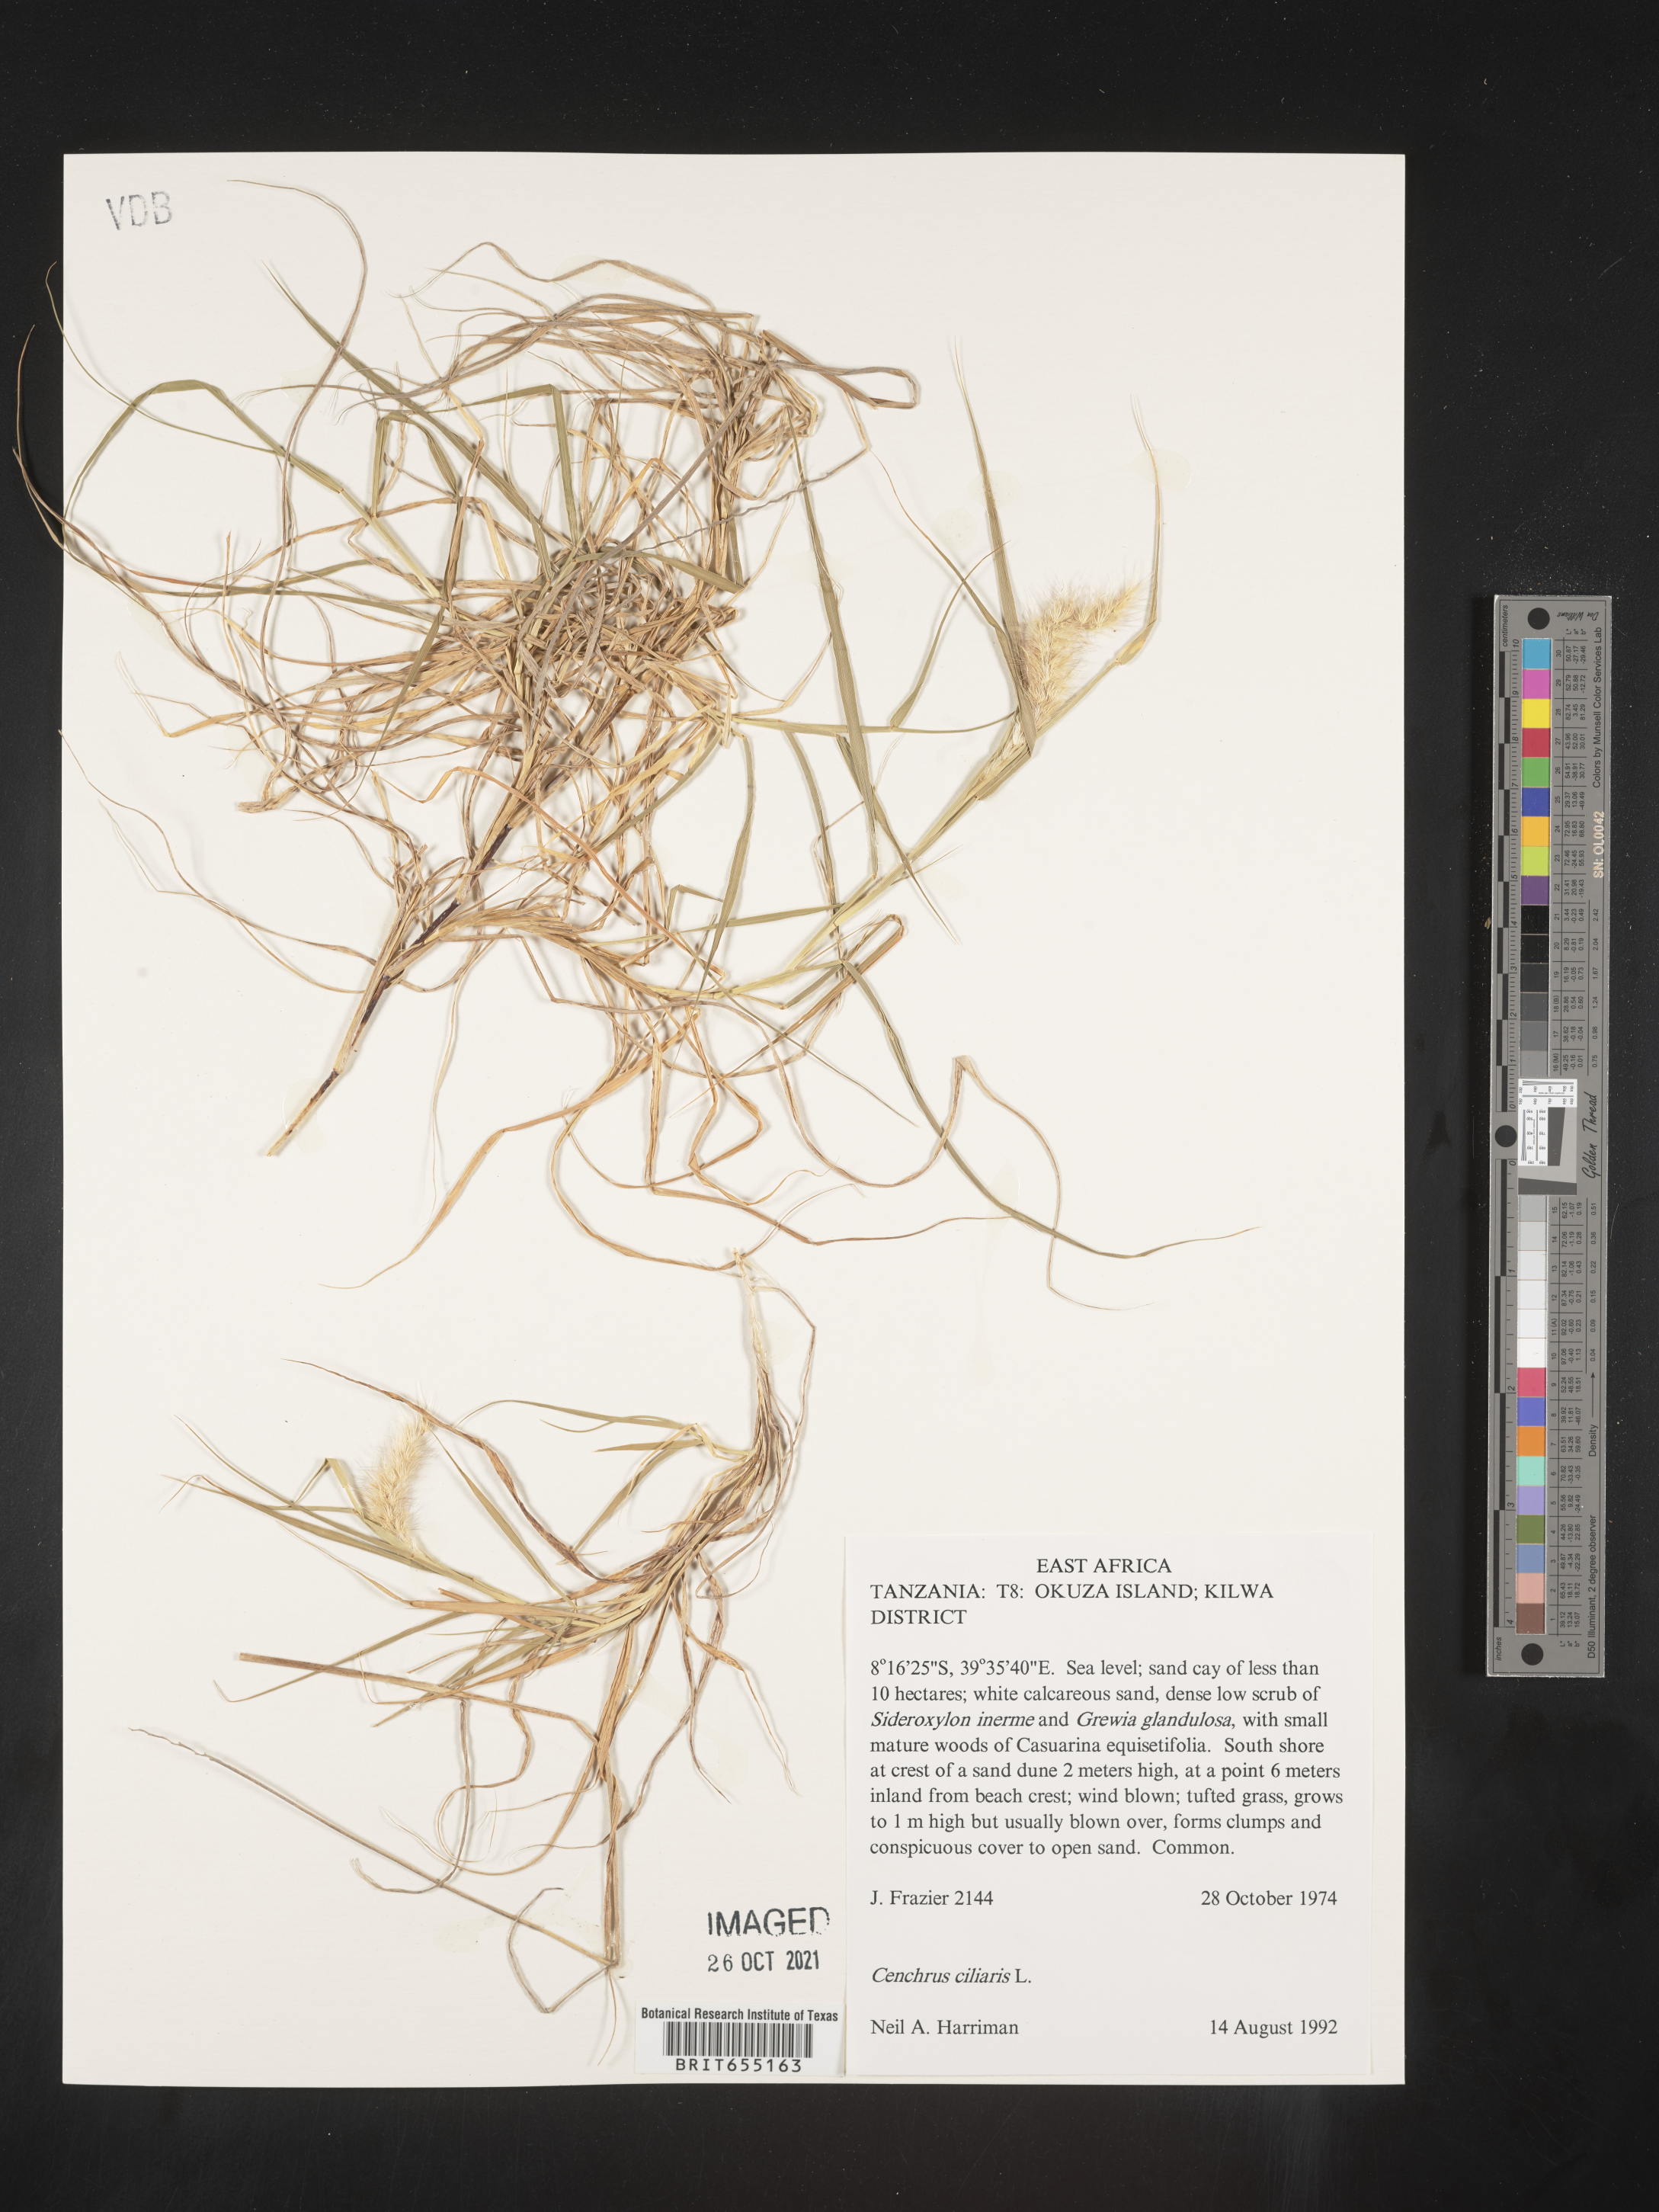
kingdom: Plantae
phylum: Tracheophyta
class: Liliopsida
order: Poales
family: Poaceae
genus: Cenchrus
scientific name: Cenchrus
